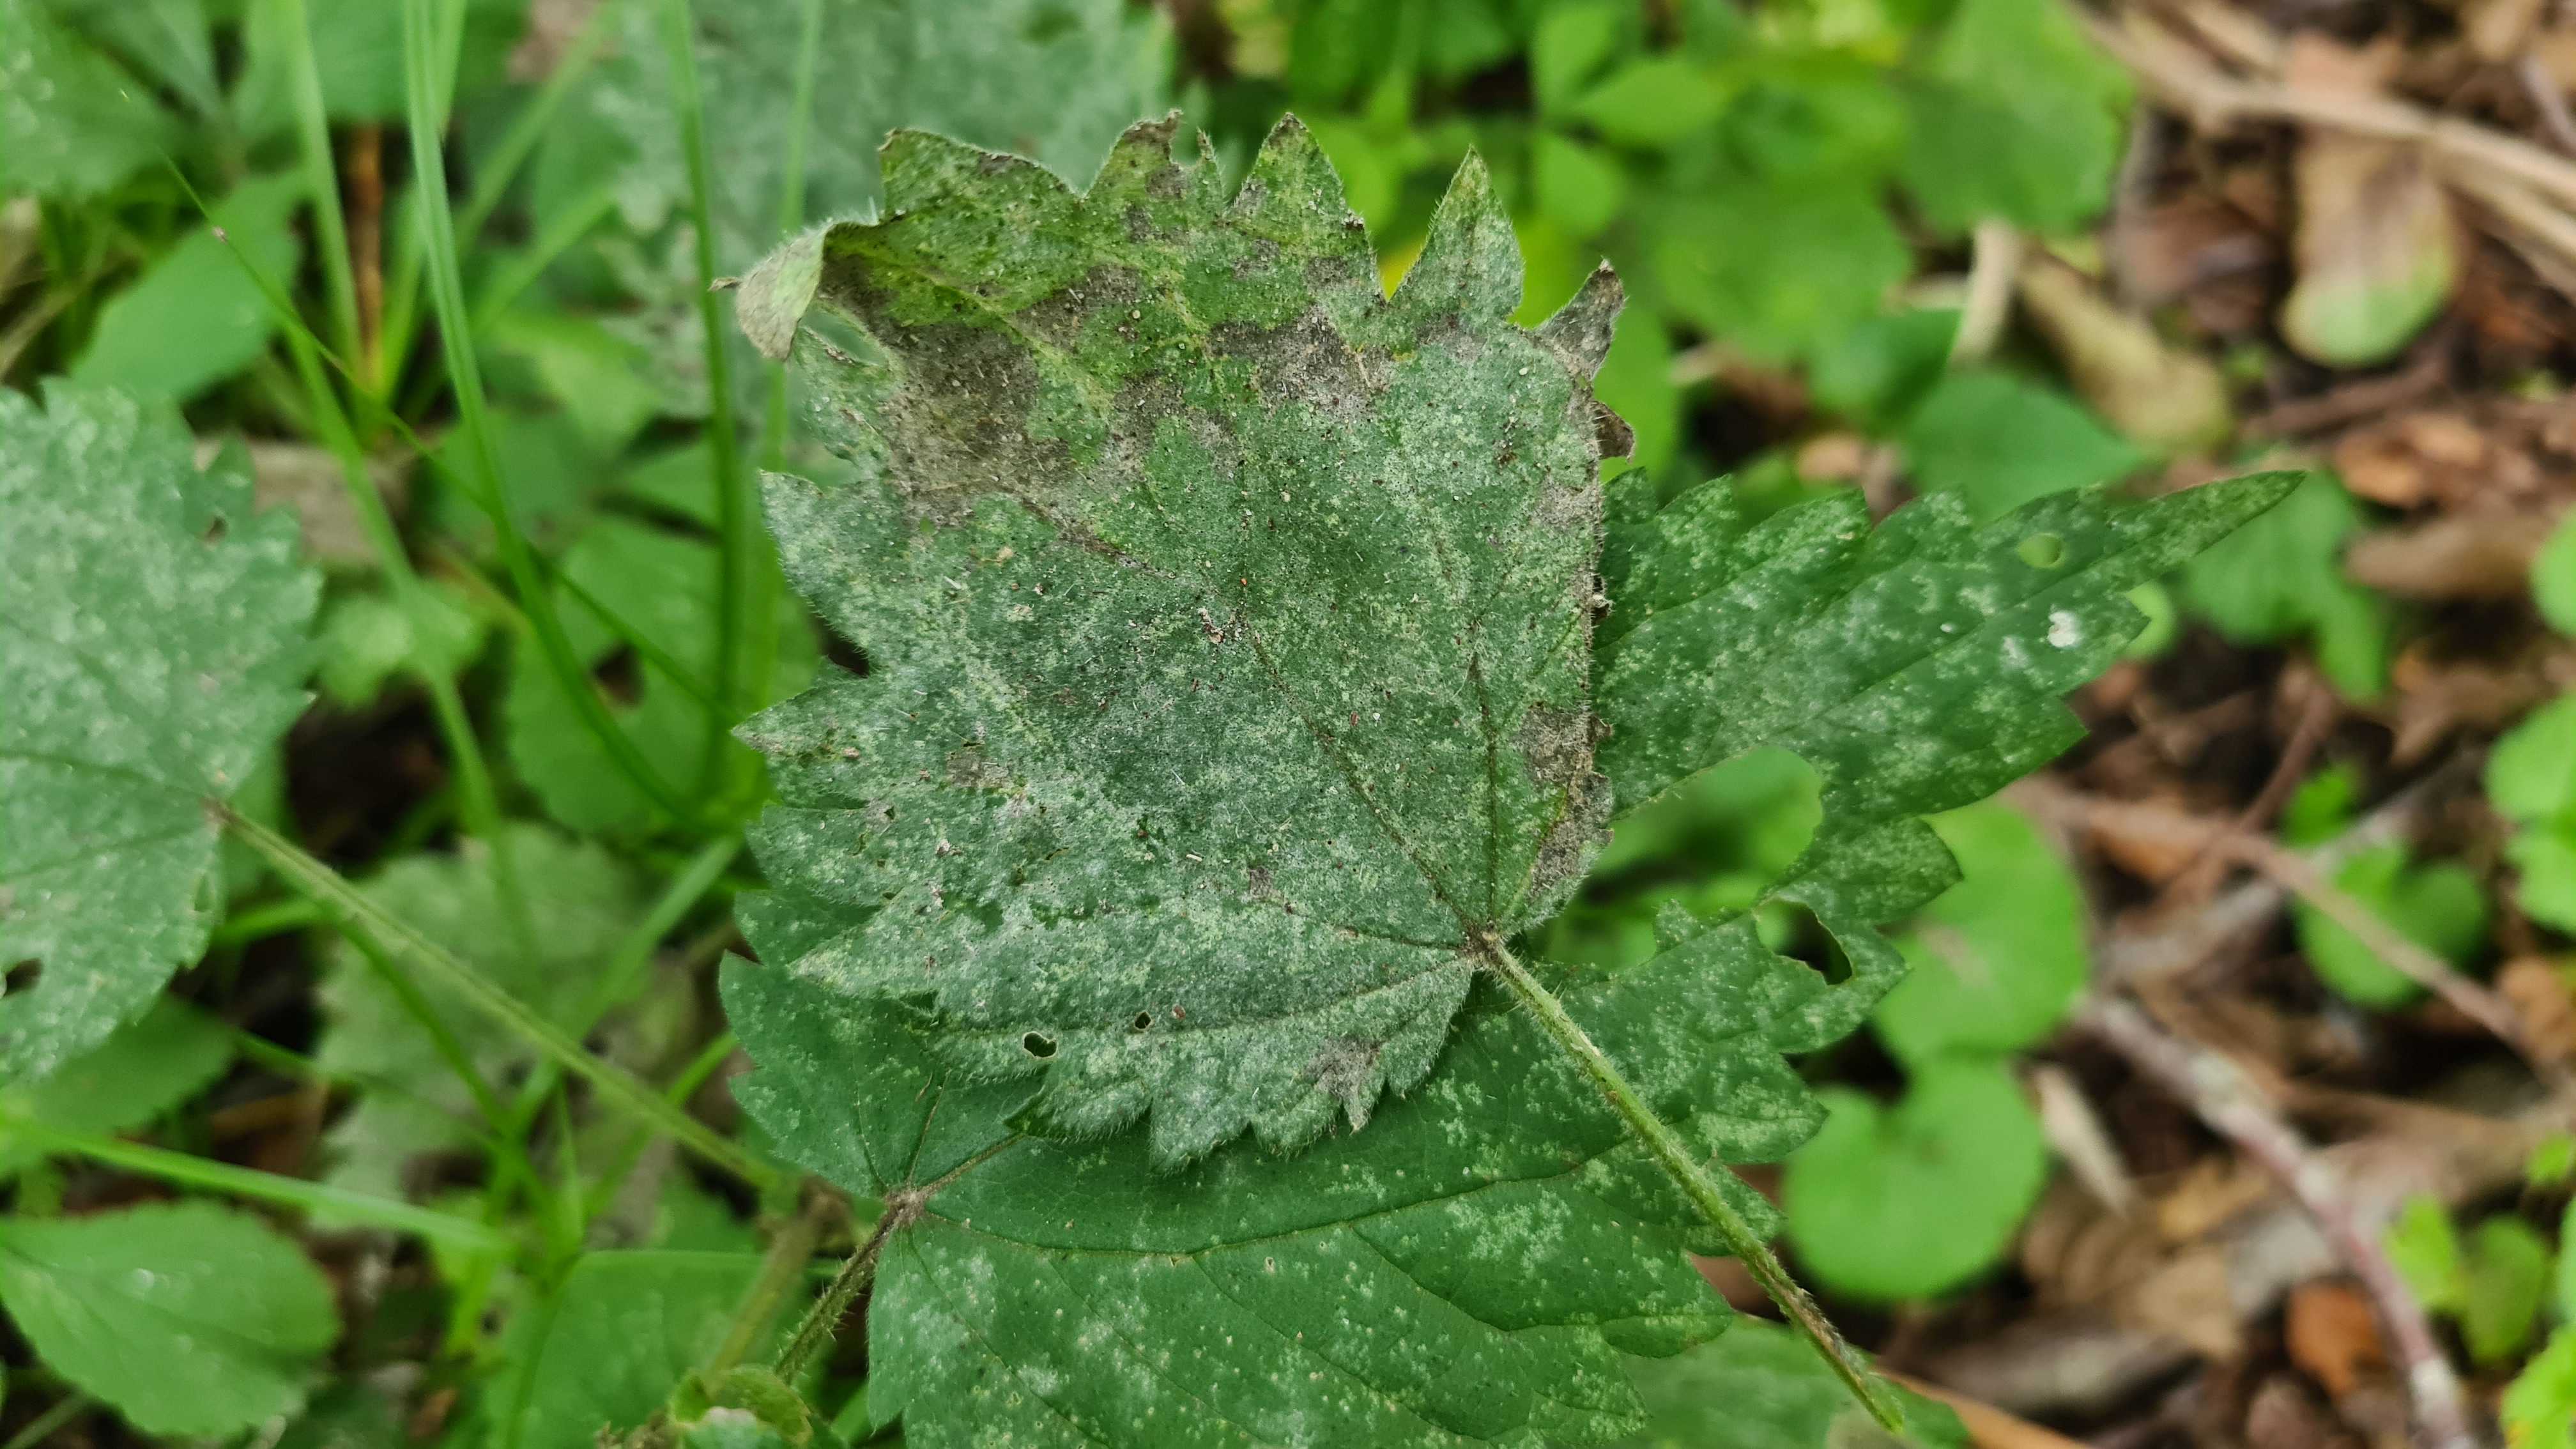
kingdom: Fungi
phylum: Ascomycota
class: Leotiomycetes
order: Helotiales
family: Erysiphaceae
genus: Erysiphe
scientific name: Erysiphe urticae
